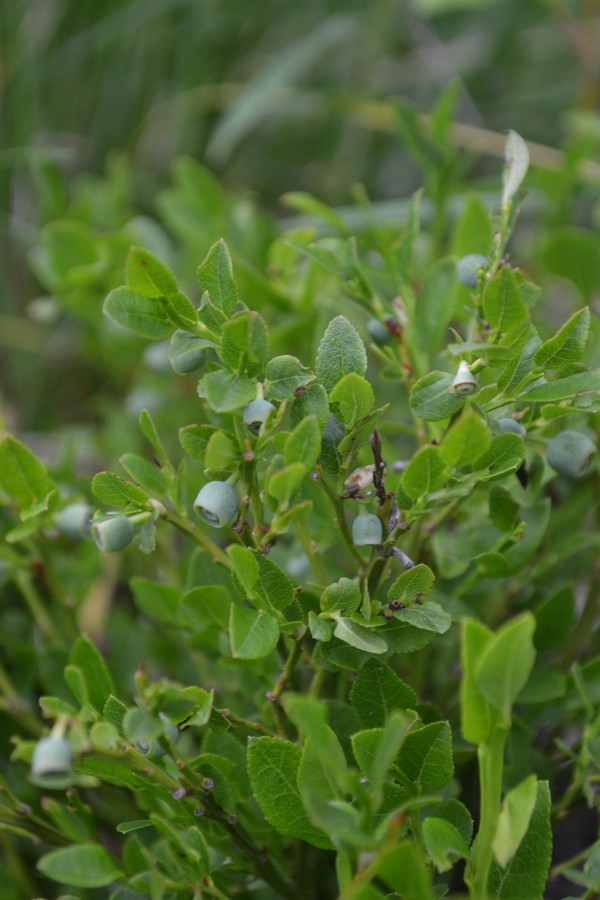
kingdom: Plantae
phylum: Tracheophyta
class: Magnoliopsida
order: Ericales
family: Ericaceae
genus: Vaccinium
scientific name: Vaccinium myrtillus
